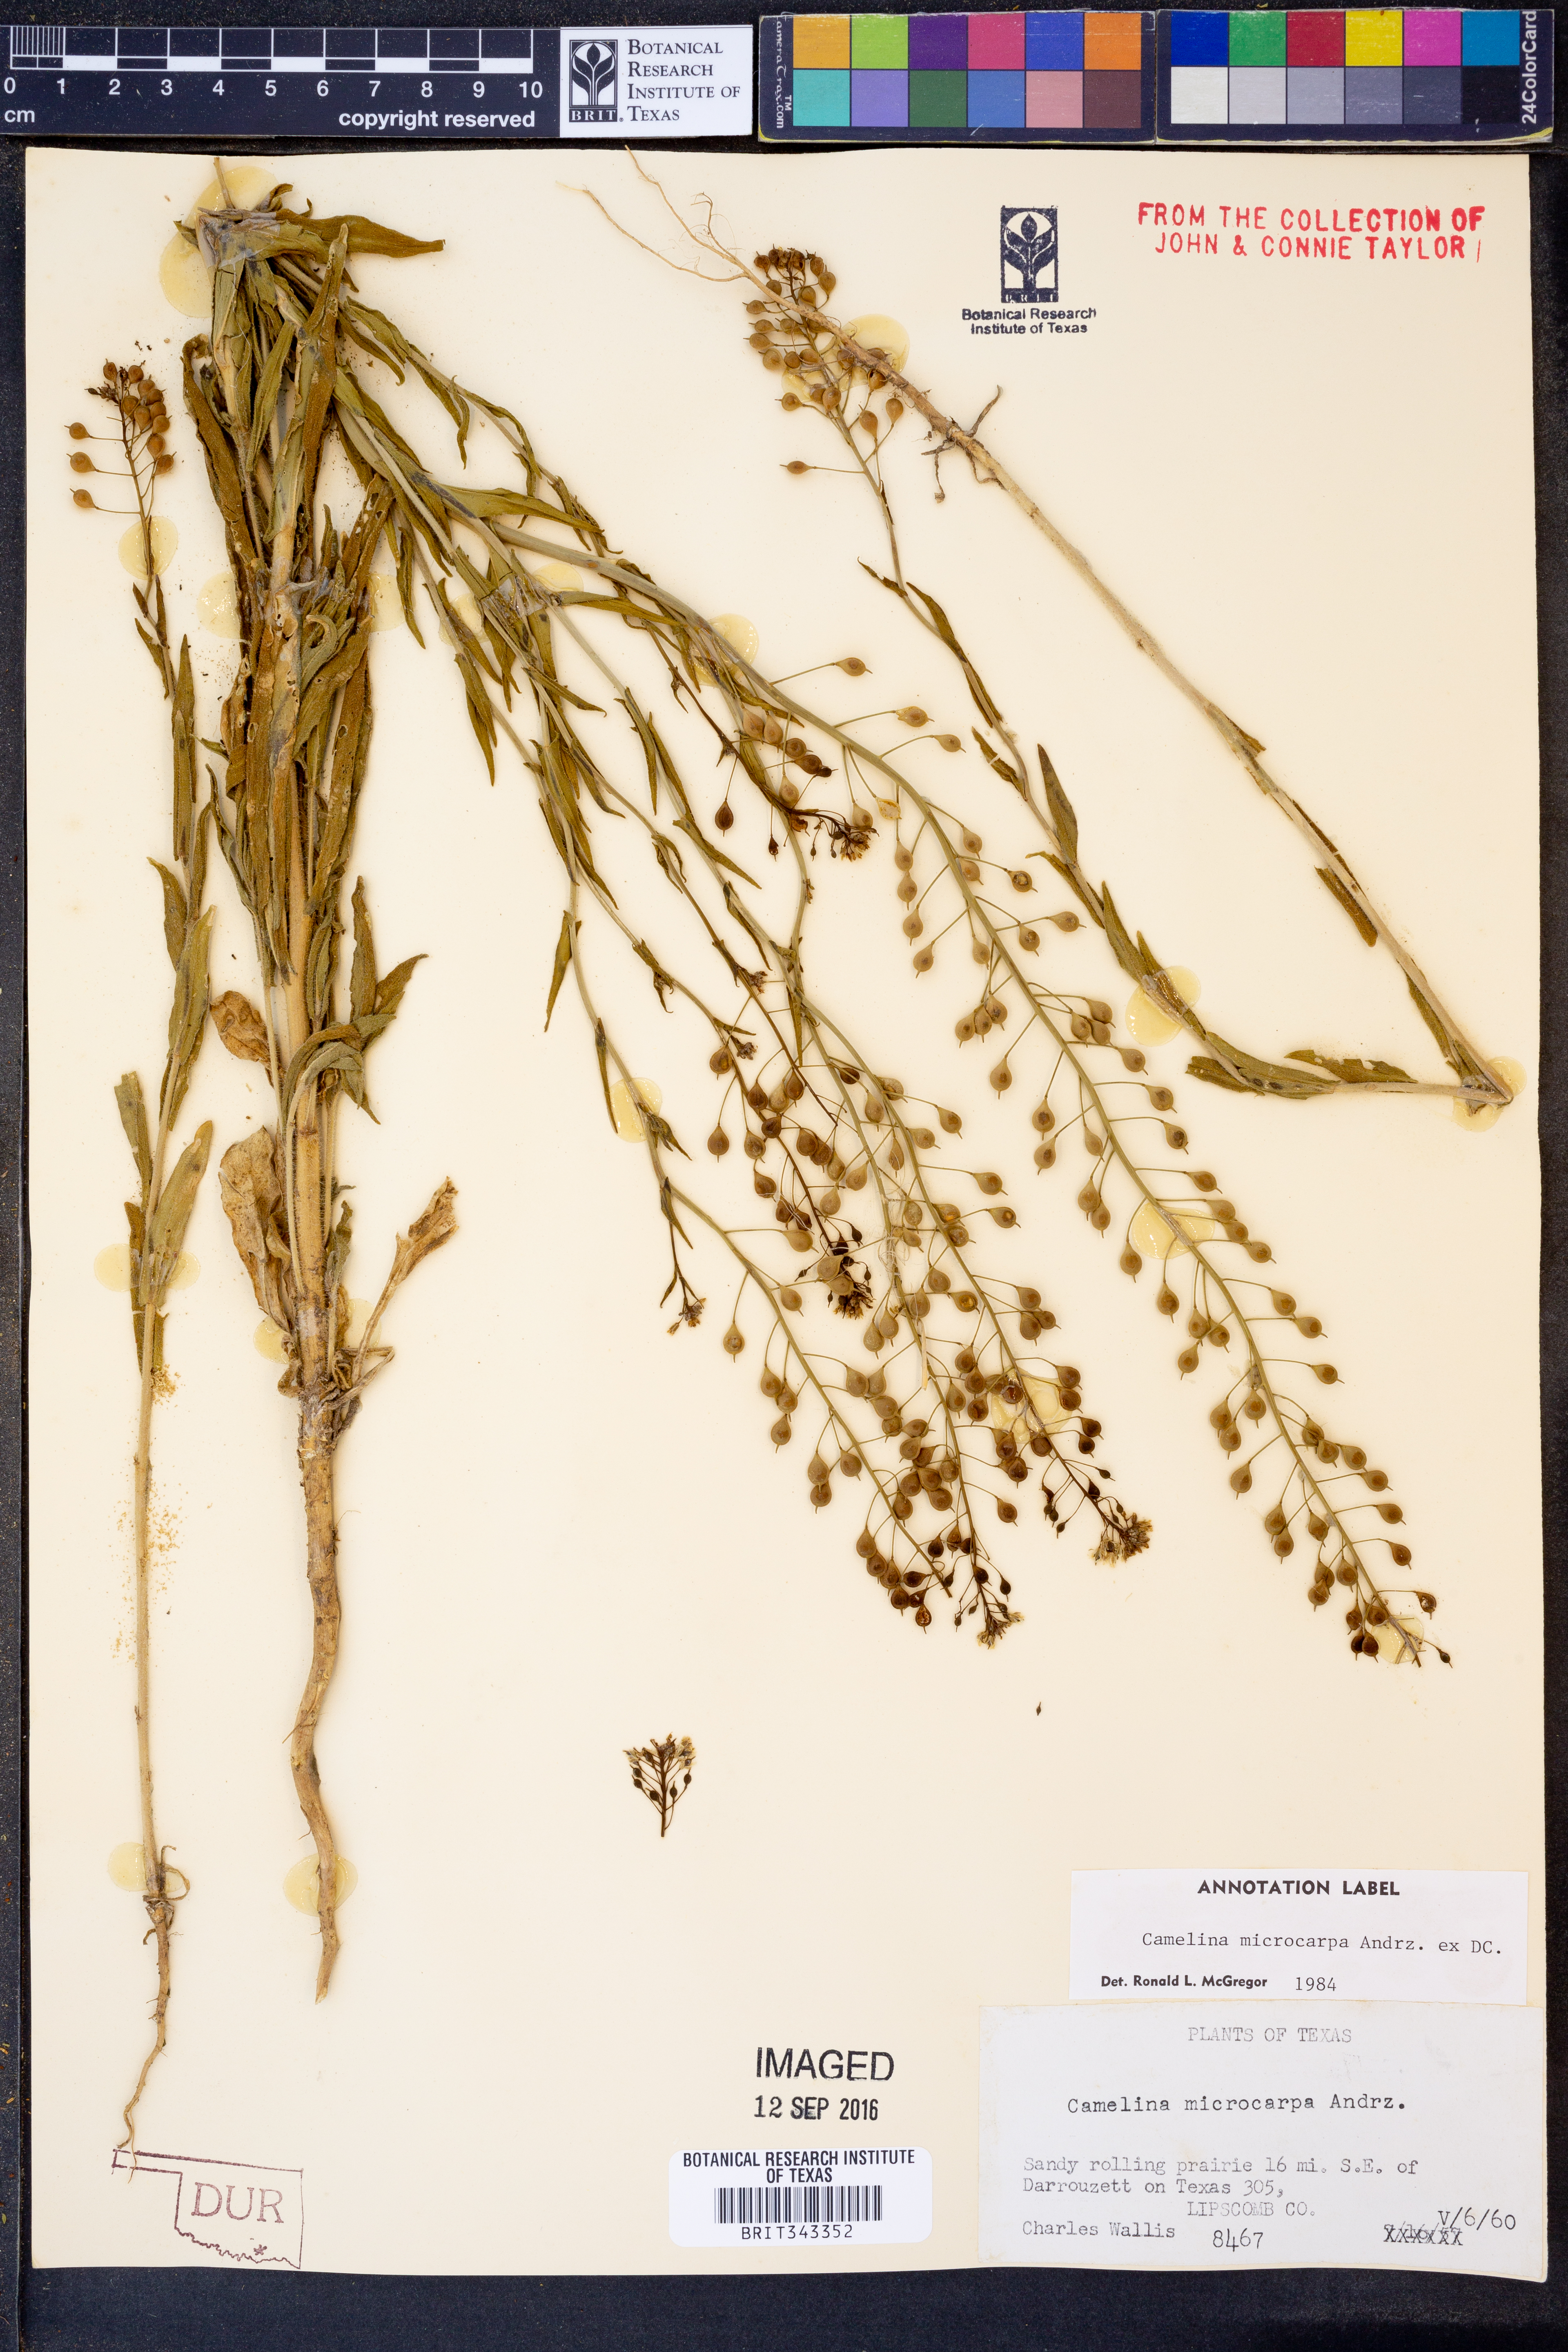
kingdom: Plantae
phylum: Tracheophyta
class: Magnoliopsida
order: Brassicales
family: Brassicaceae
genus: Camelina
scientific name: Camelina microcarpa
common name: Lesser gold-of-pleasure
